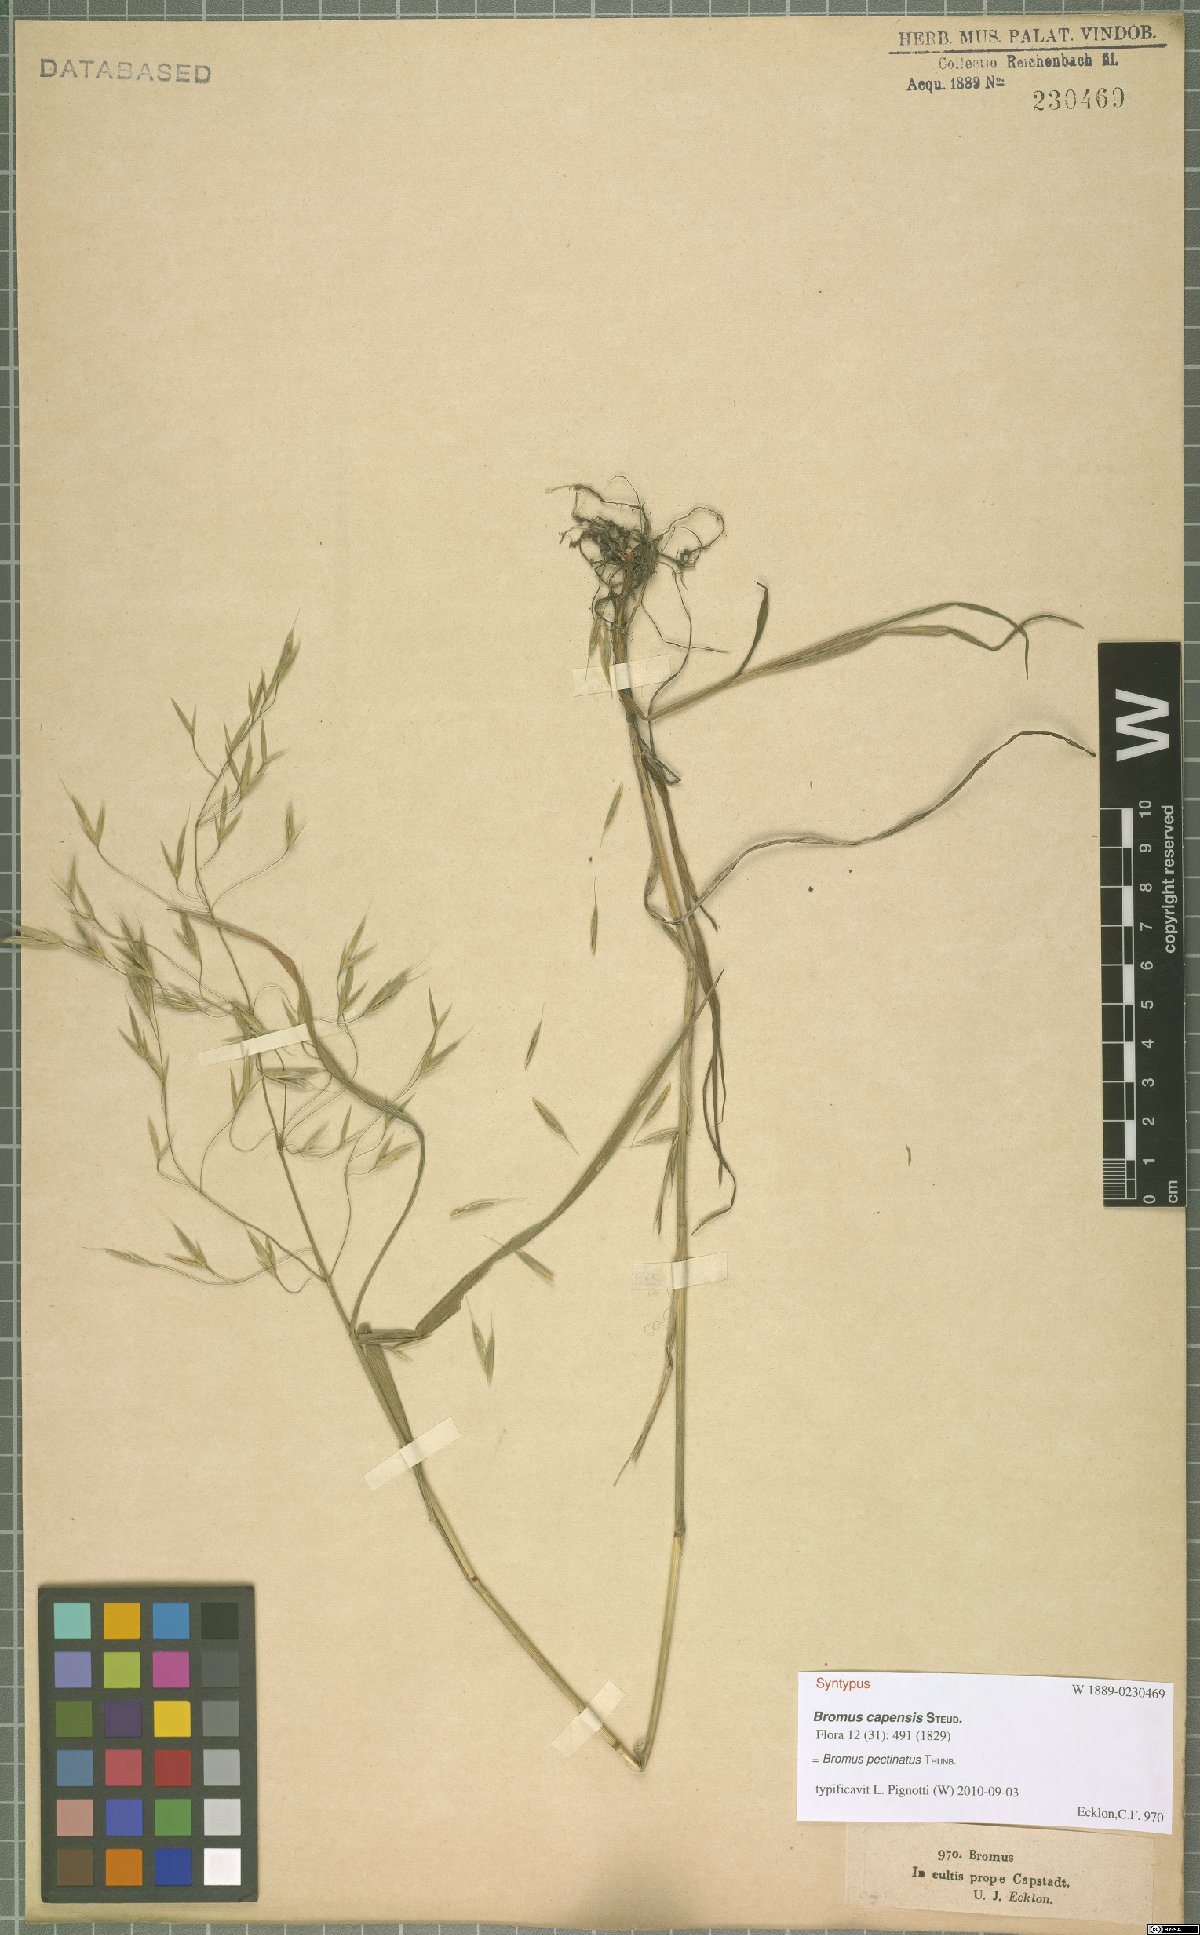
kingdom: Plantae
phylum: Tracheophyta
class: Liliopsida
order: Poales
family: Poaceae
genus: Bromus
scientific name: Bromus pectinatus
